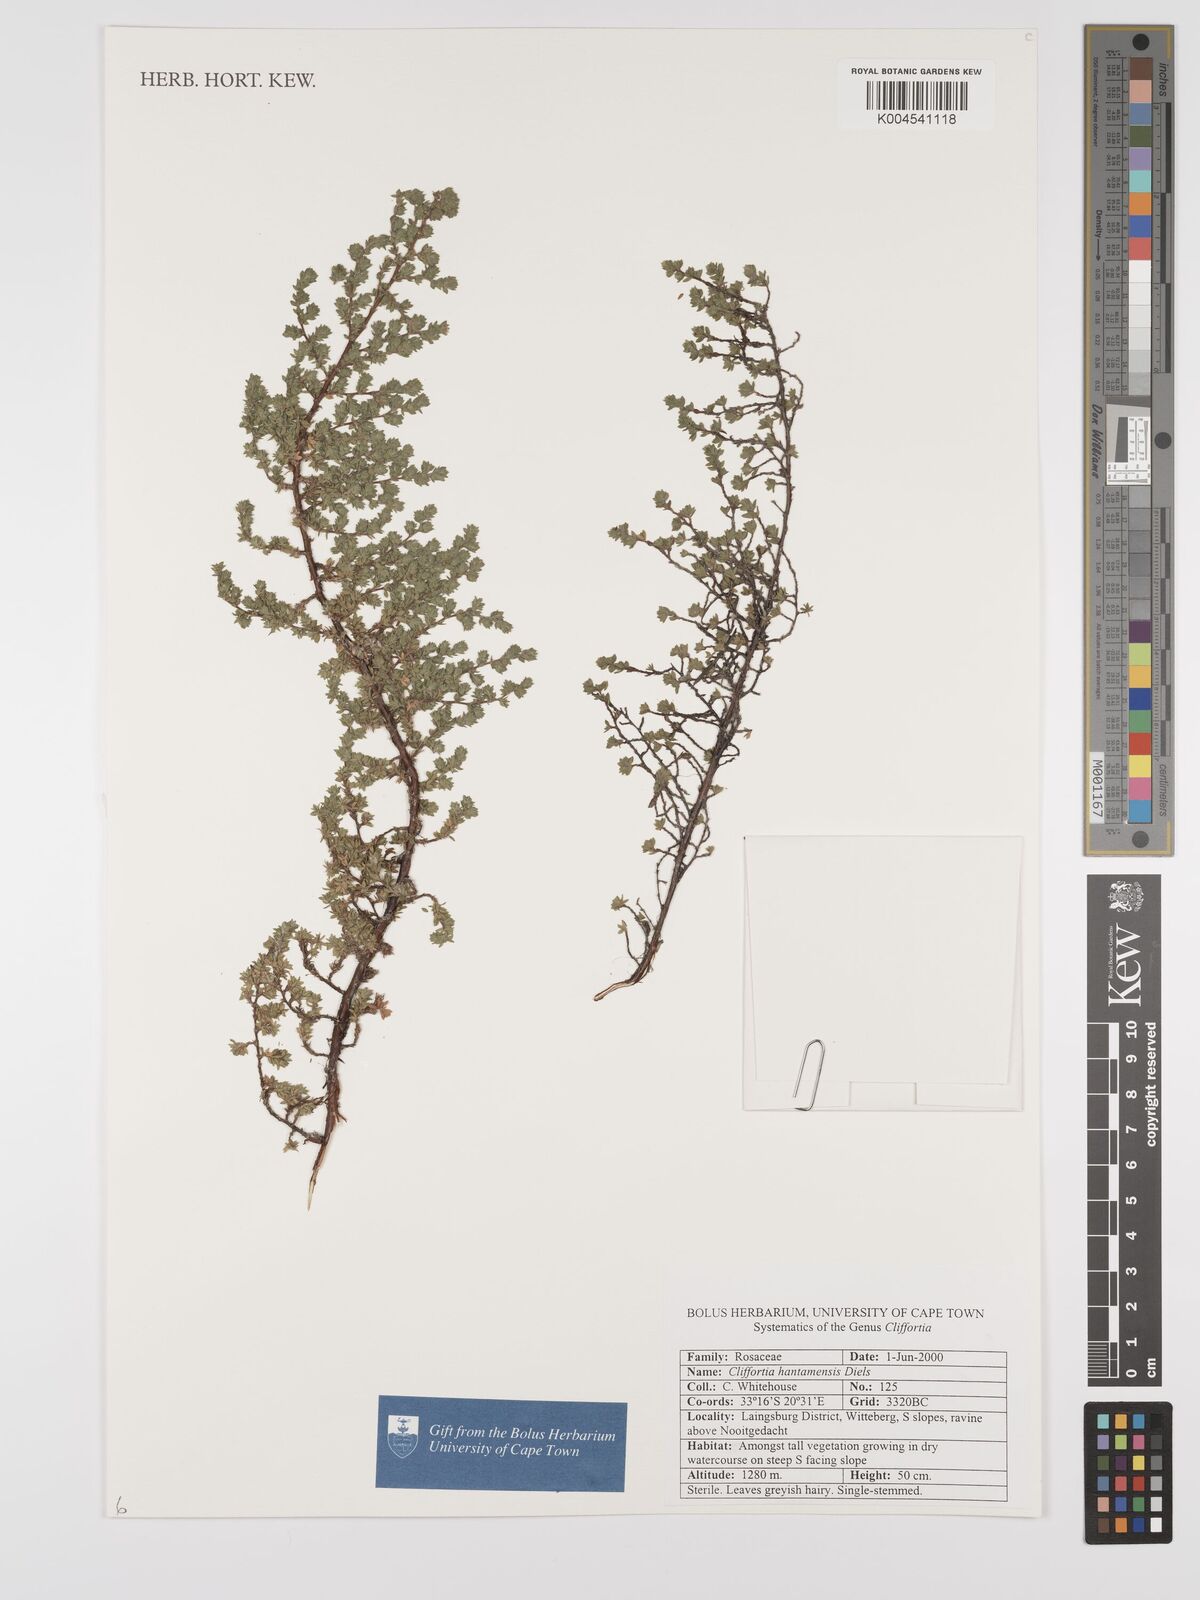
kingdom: Plantae
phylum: Tracheophyta
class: Magnoliopsida
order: Rosales
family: Rosaceae
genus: Cliffortia
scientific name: Cliffortia hantamensis
